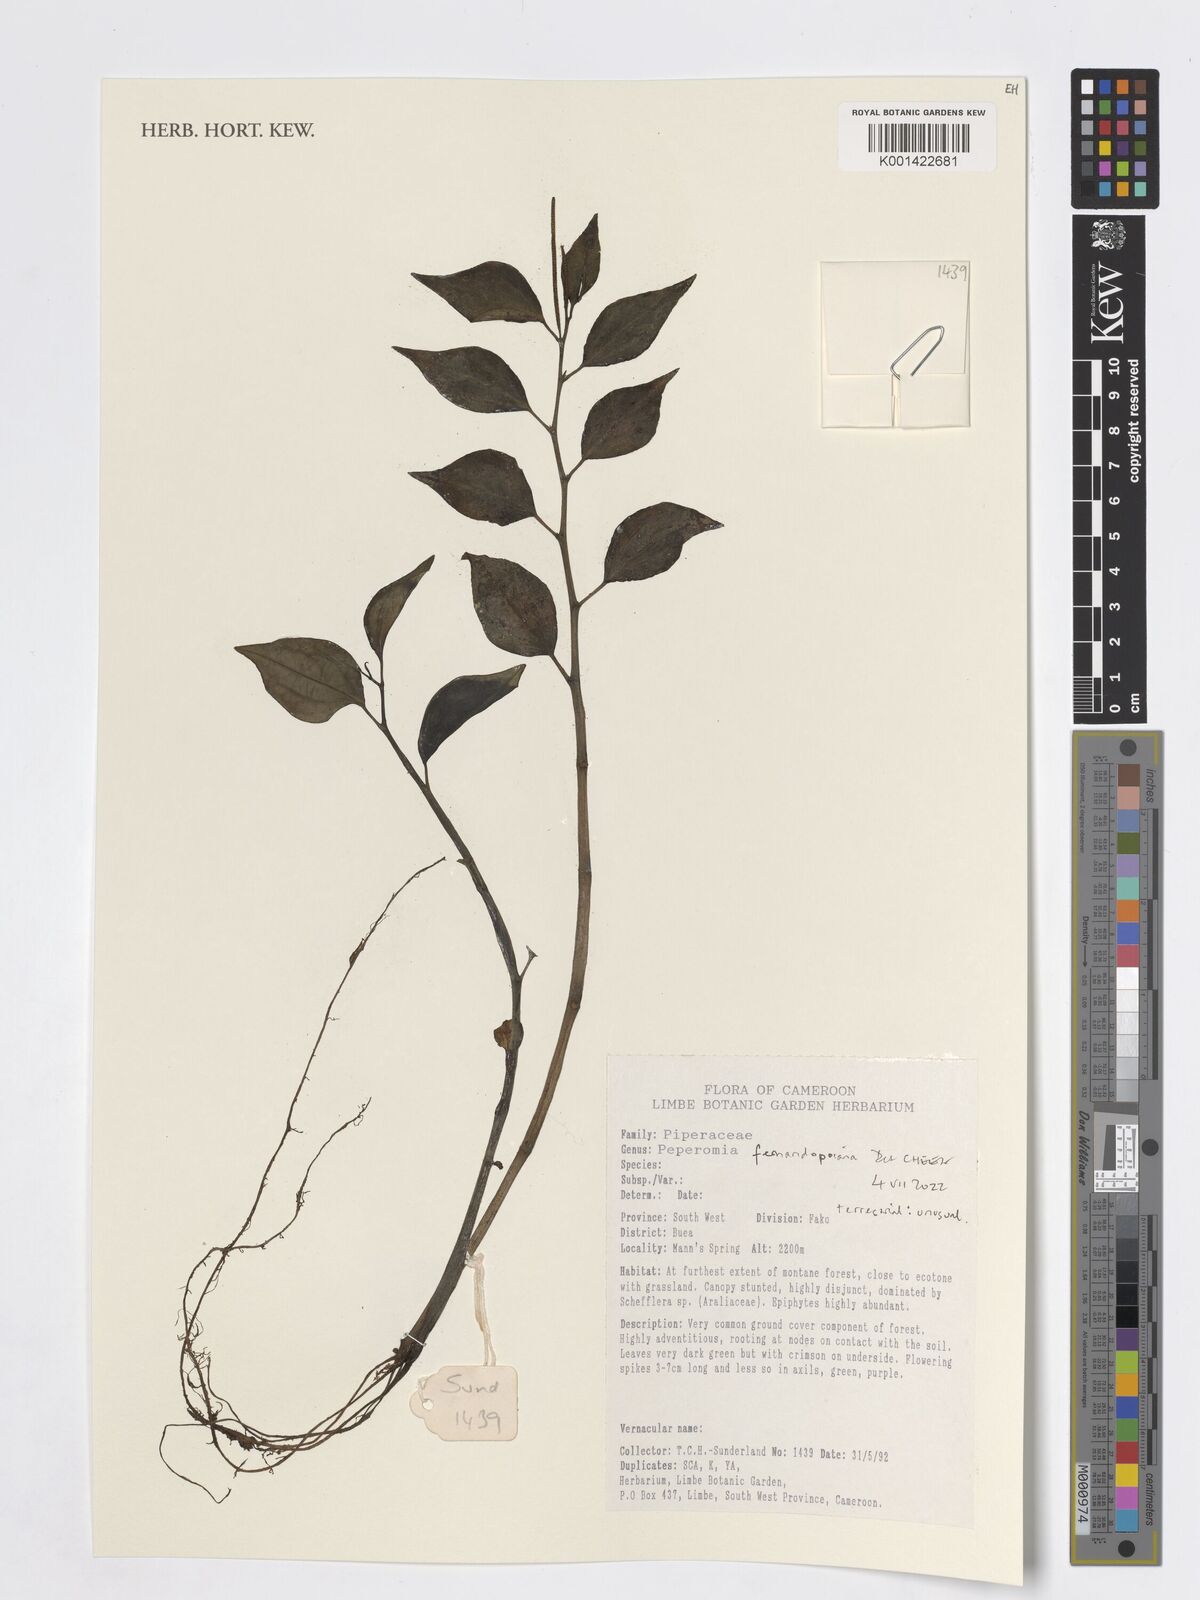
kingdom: Plantae
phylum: Tracheophyta
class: Magnoliopsida
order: Piperales
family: Piperaceae
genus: Peperomia
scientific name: Peperomia fernandopoiana
